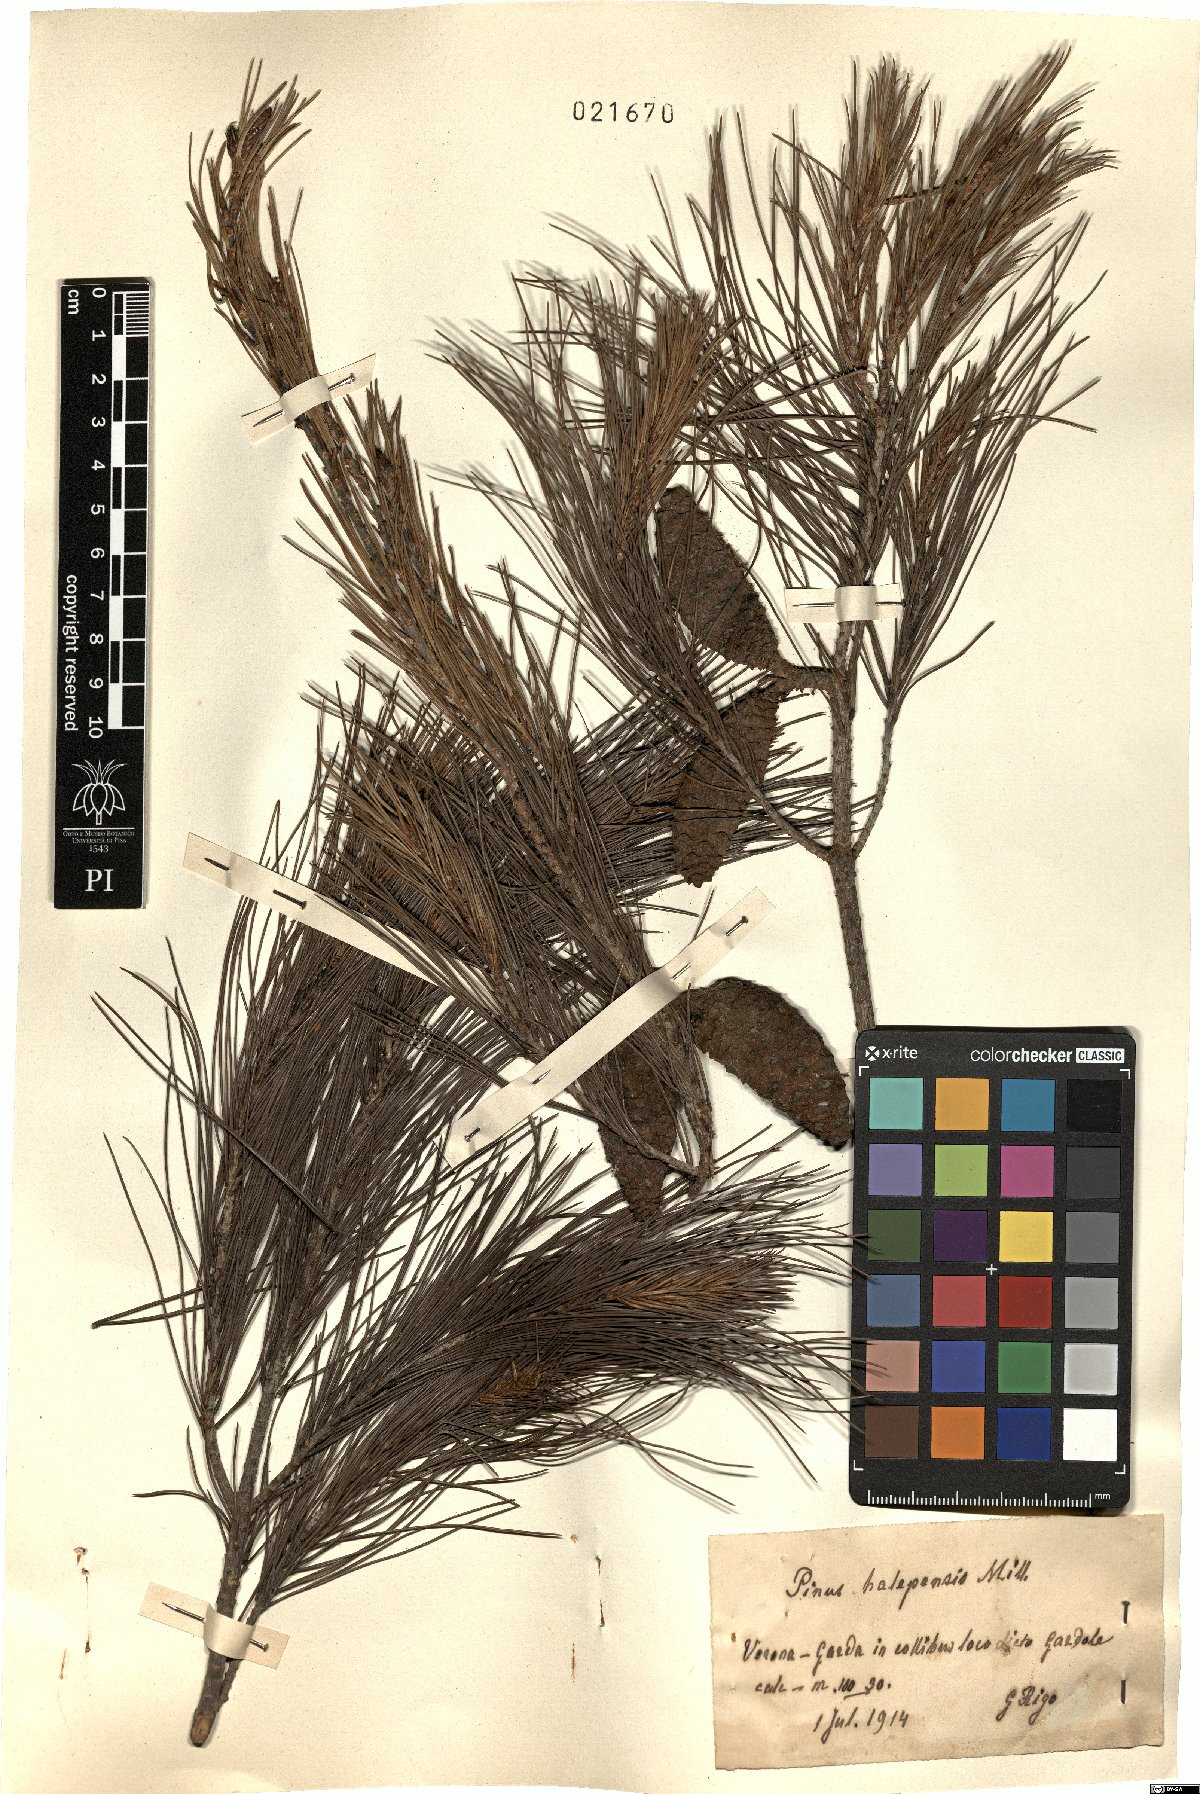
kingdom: Plantae
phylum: Tracheophyta
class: Pinopsida
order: Pinales
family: Pinaceae
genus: Pinus
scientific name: Pinus halepensis
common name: Aleppo pine
